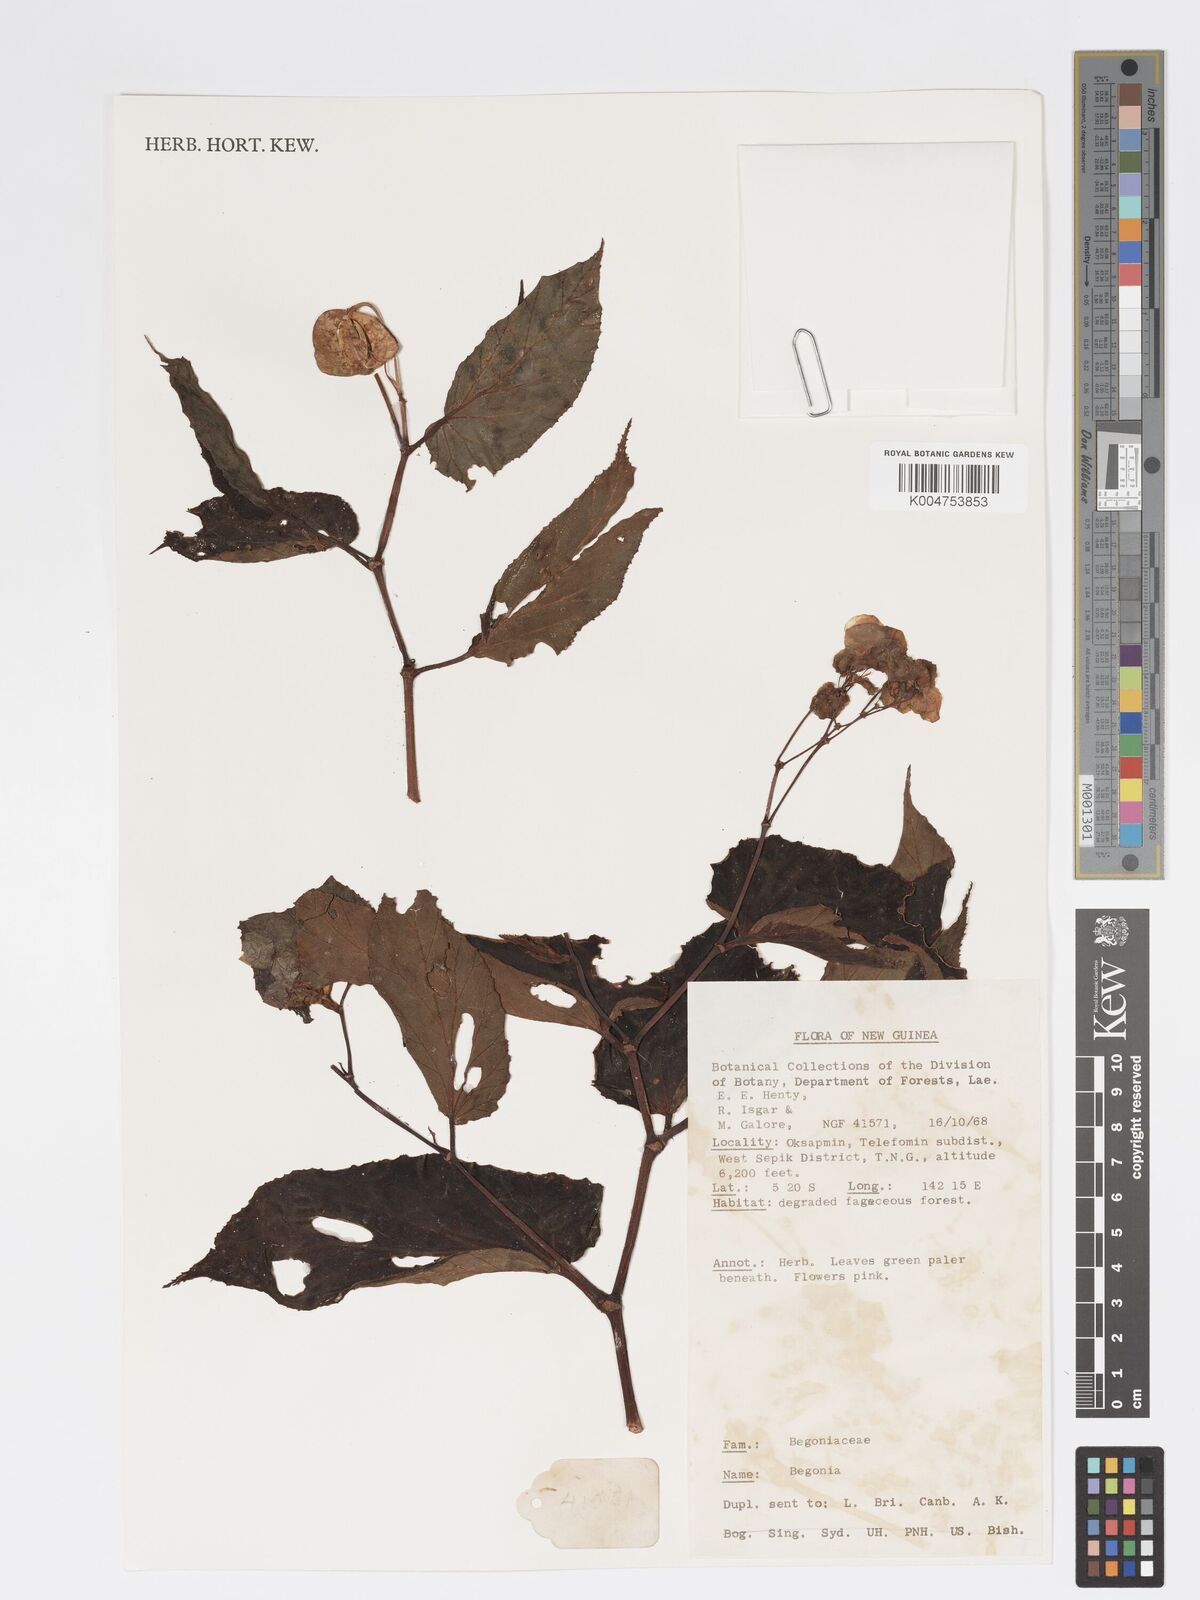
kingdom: Plantae
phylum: Tracheophyta
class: Magnoliopsida
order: Cucurbitales
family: Begoniaceae
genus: Begonia
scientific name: Begonia
